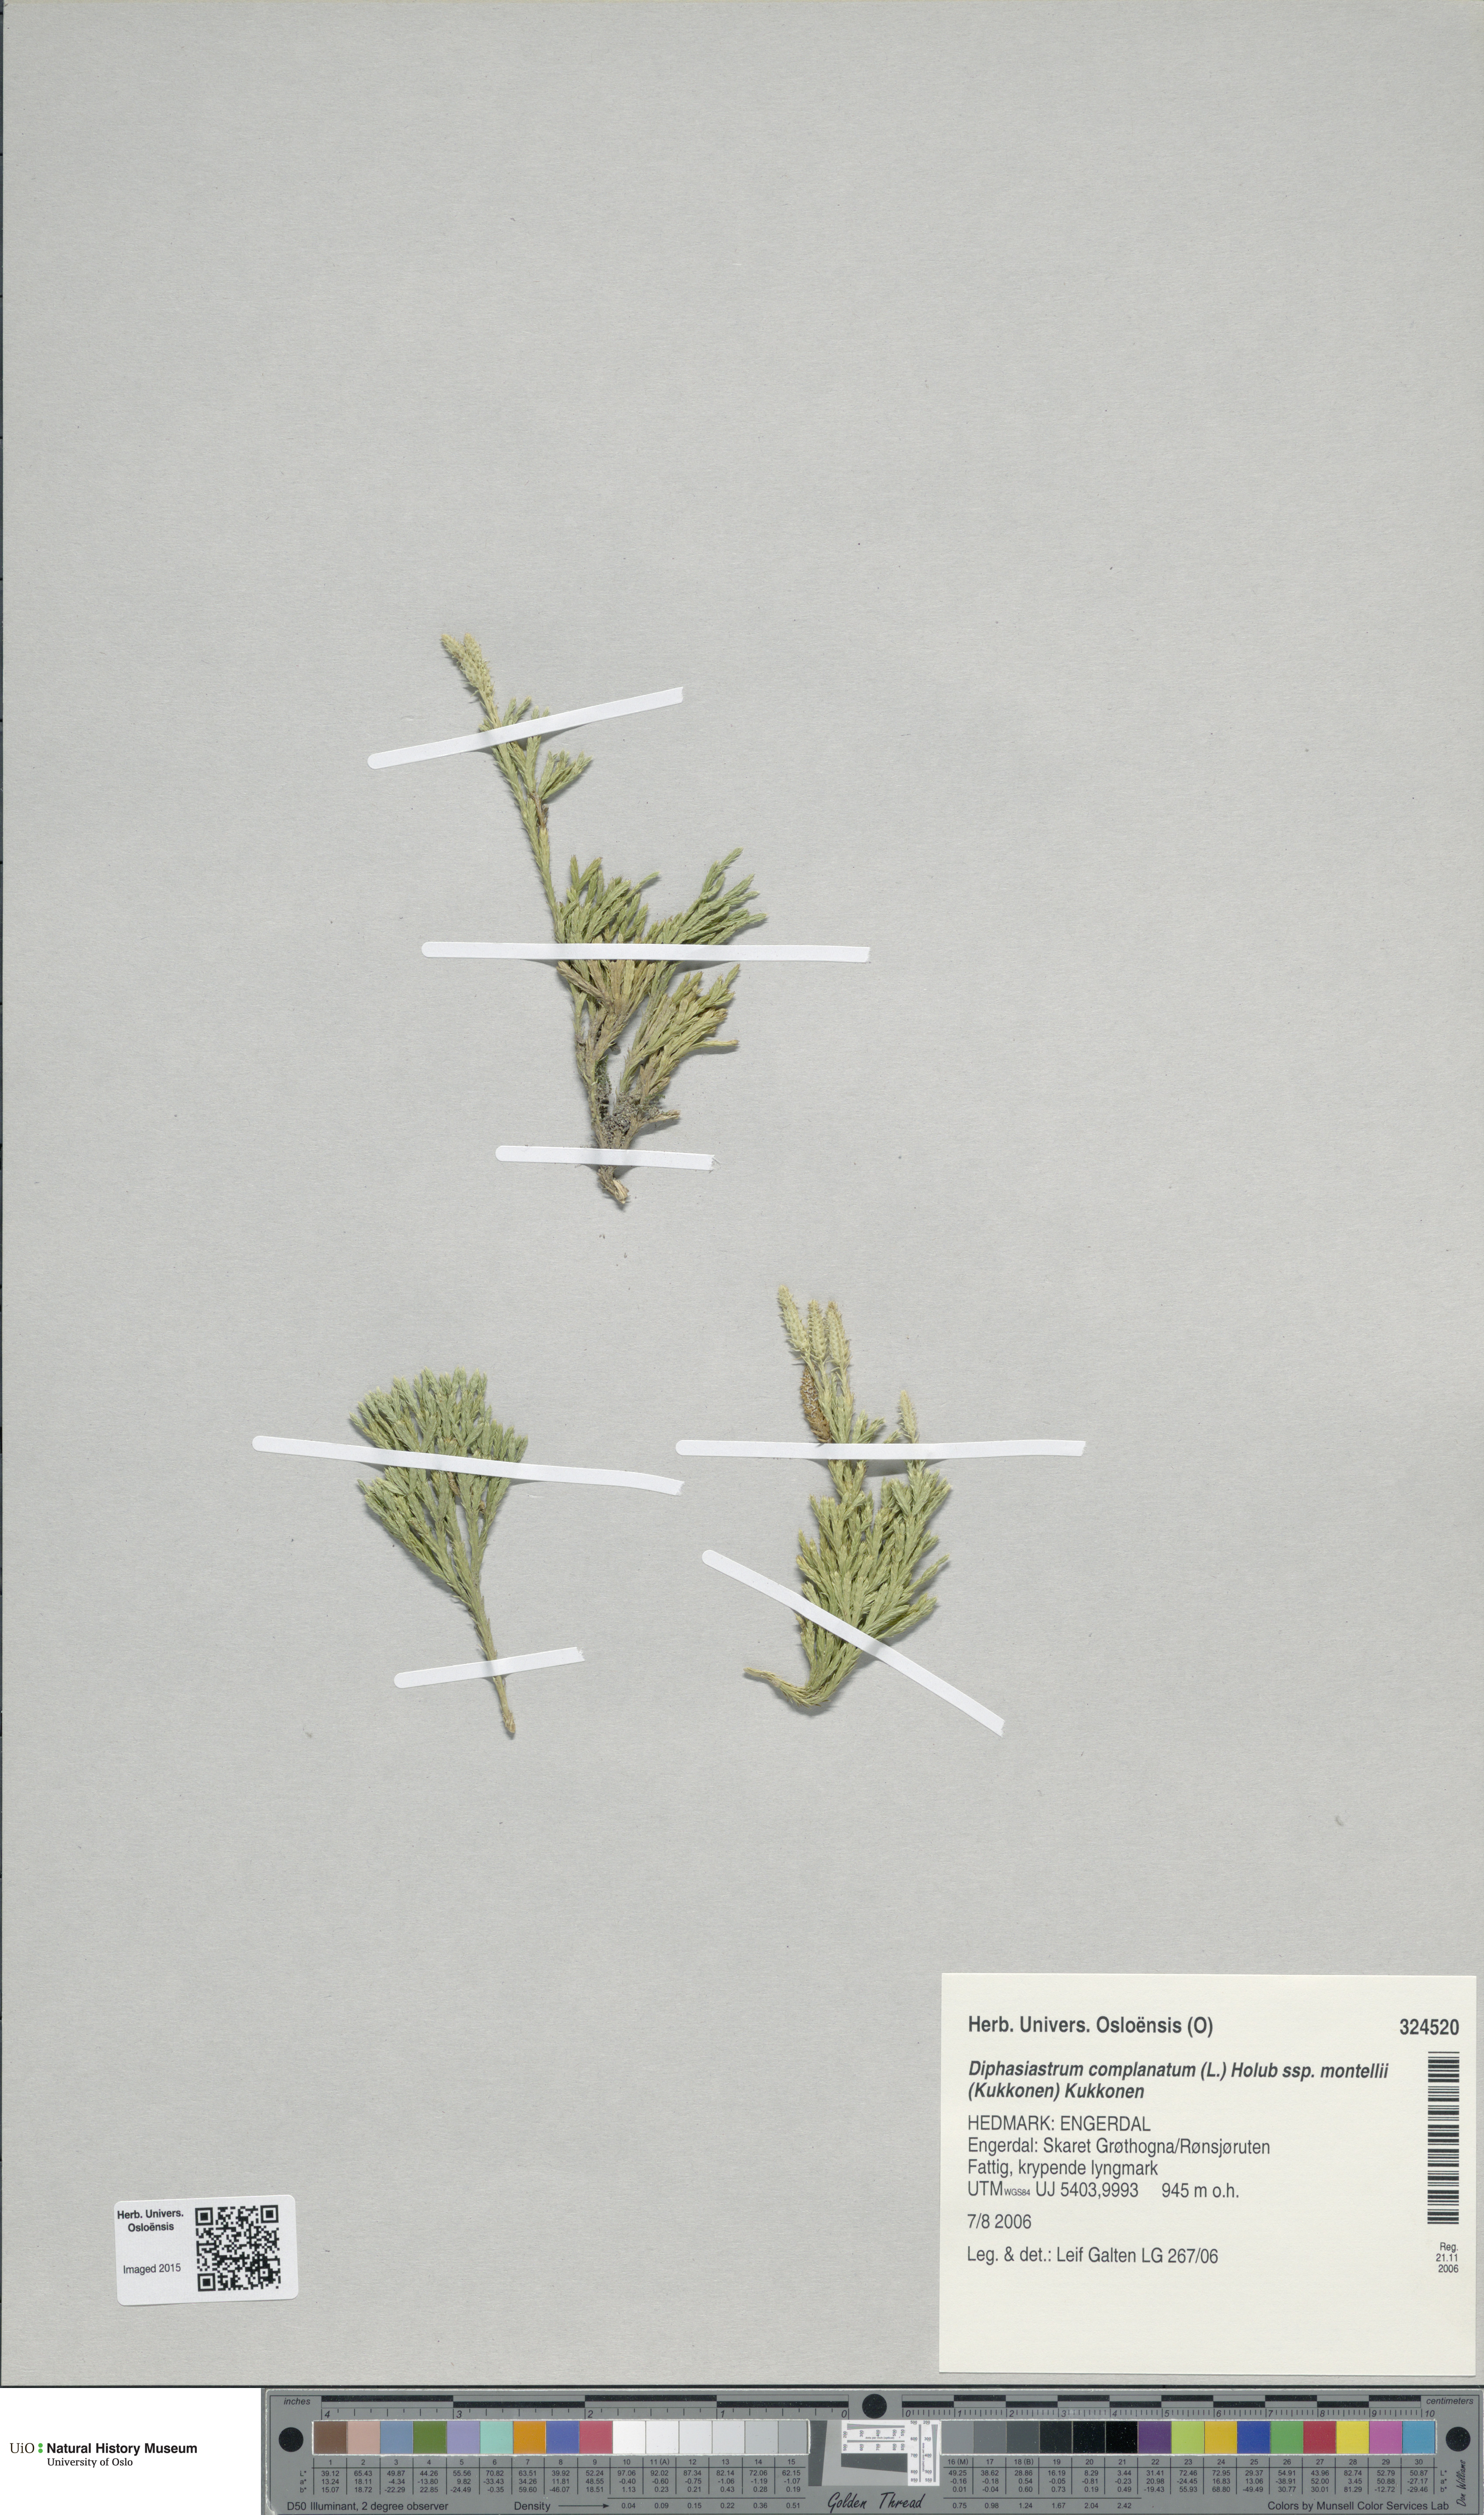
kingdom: Plantae
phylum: Tracheophyta
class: Lycopodiopsida
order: Lycopodiales
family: Lycopodiaceae
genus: Diphasiastrum
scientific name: Diphasiastrum complanatum
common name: Northern running-pine
